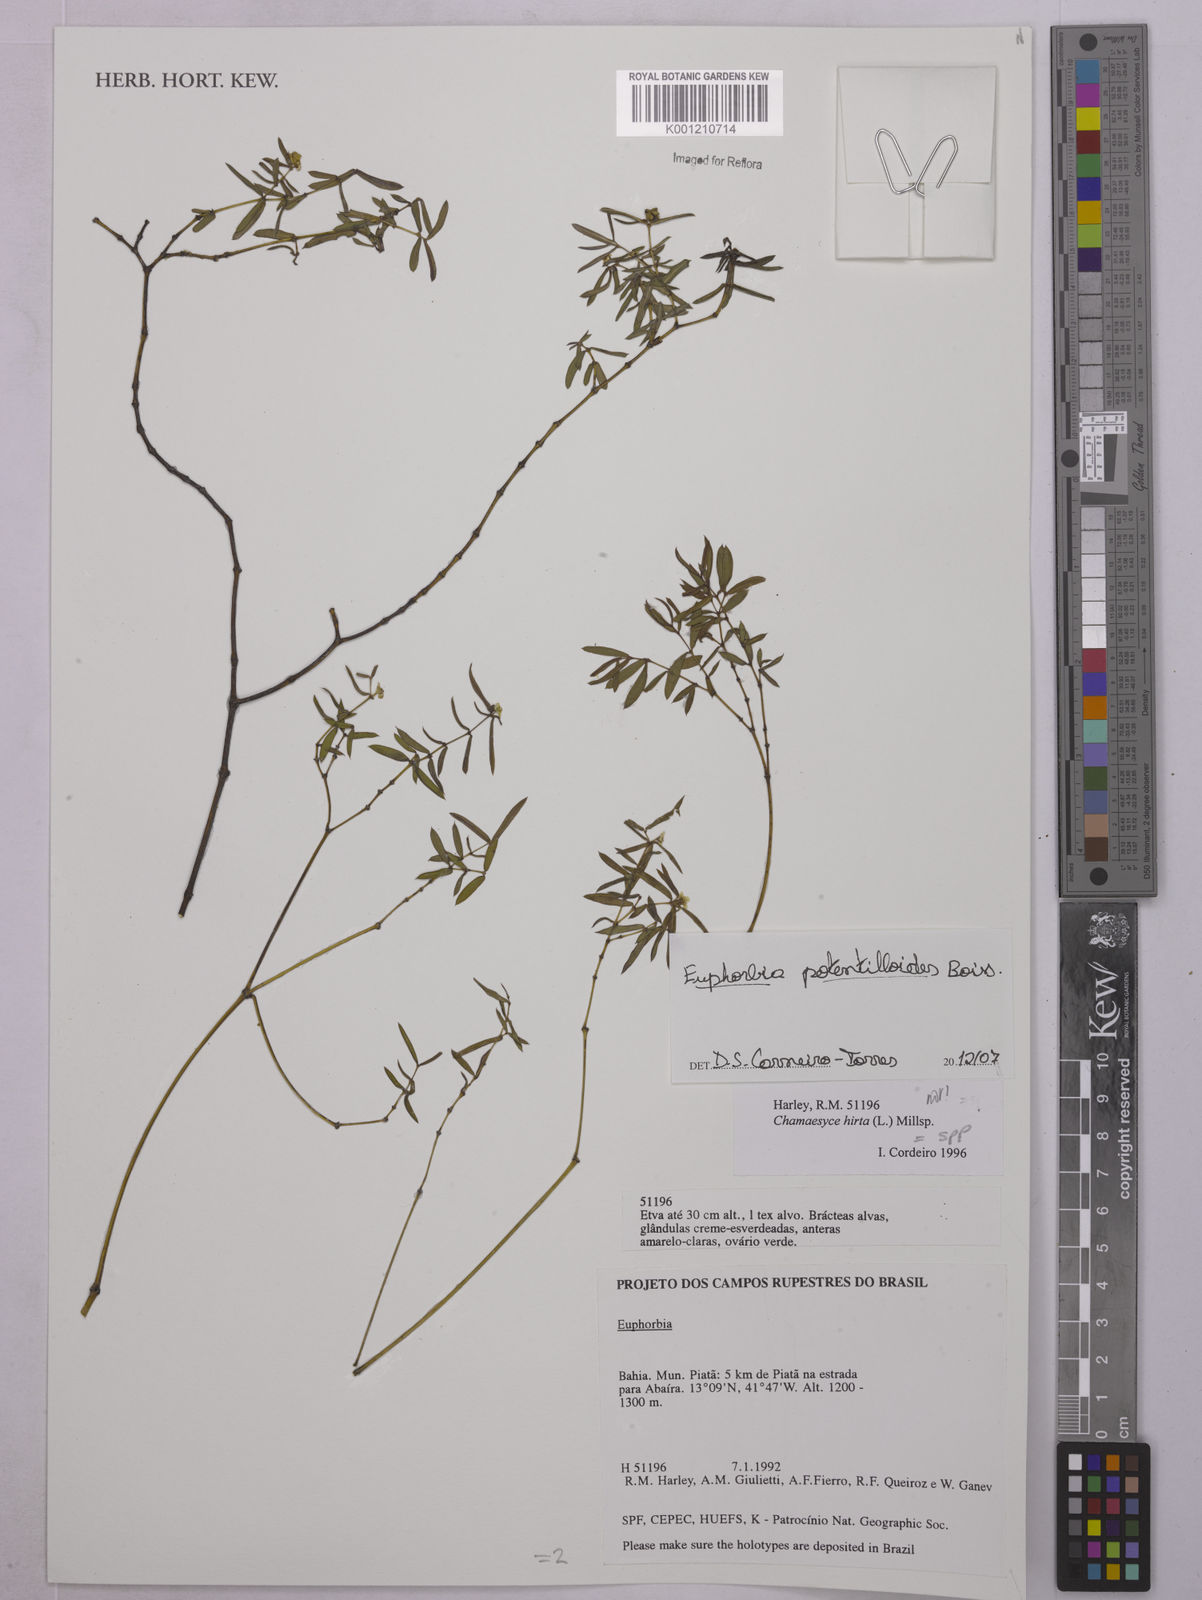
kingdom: Plantae
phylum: Tracheophyta
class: Magnoliopsida
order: Malpighiales
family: Euphorbiaceae
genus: Euphorbia
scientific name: Euphorbia potentilloides
